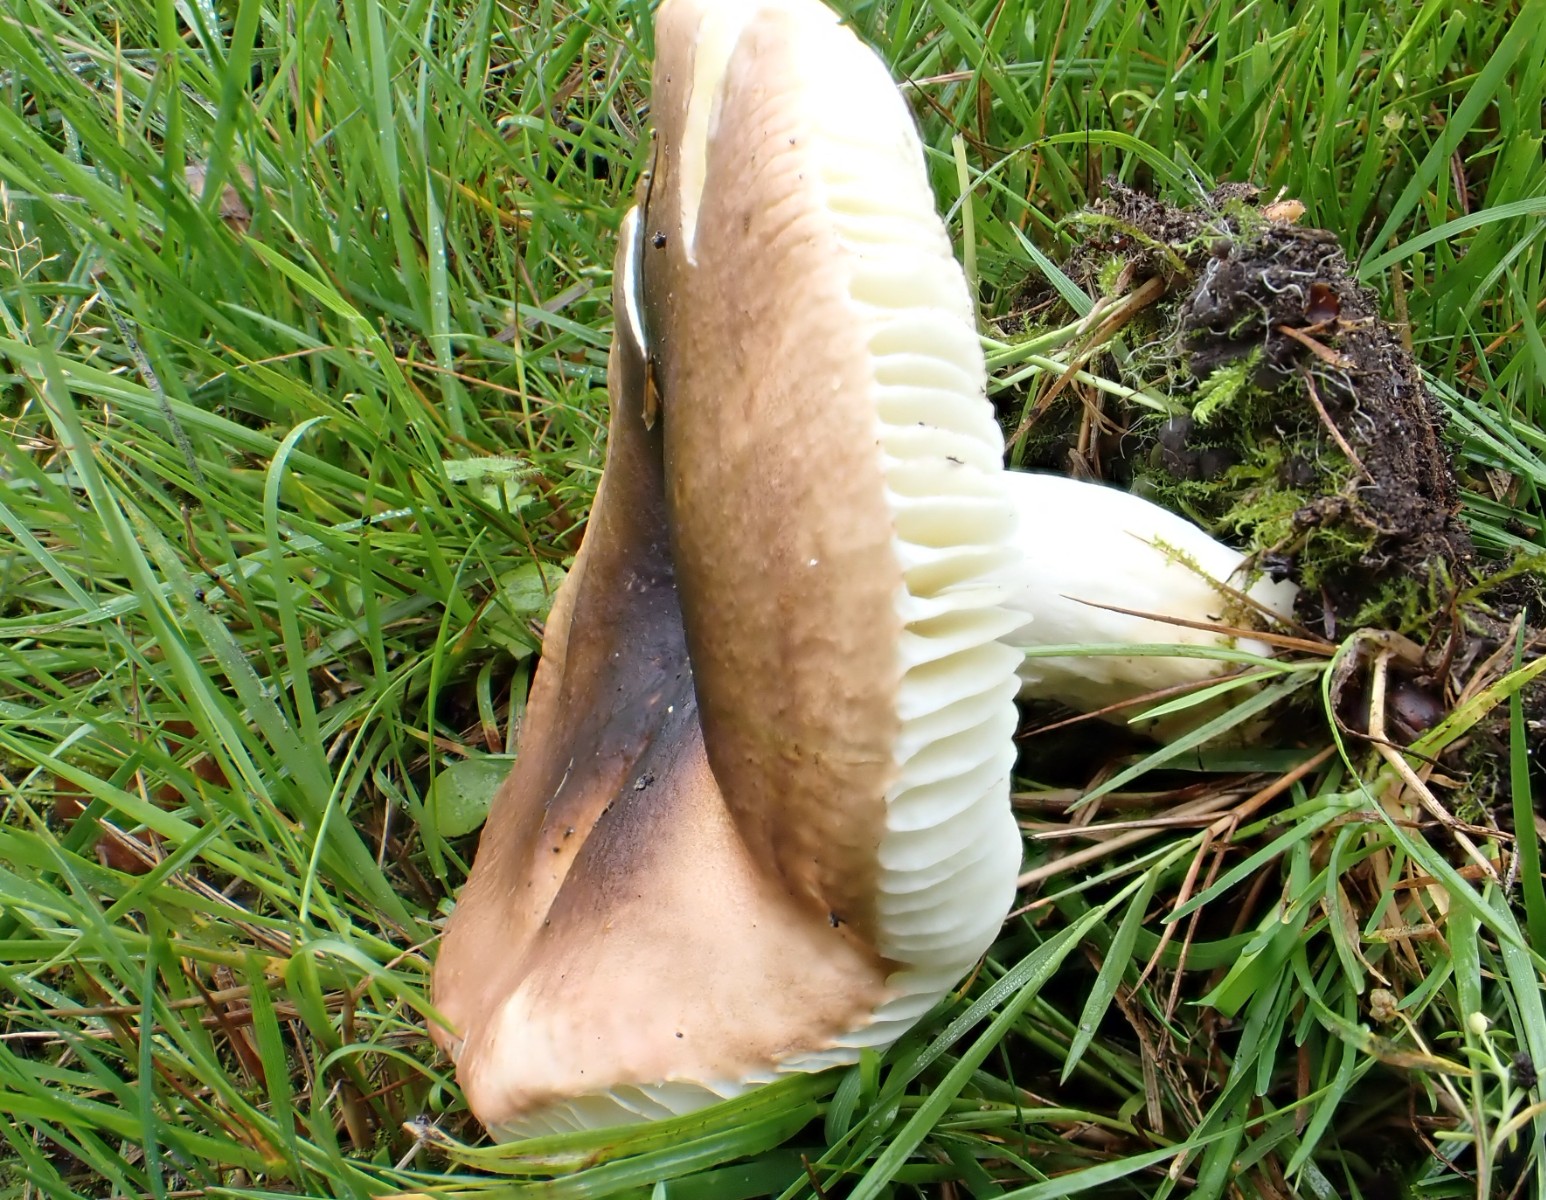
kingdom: Fungi
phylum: Basidiomycota
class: Agaricomycetes
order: Russulales
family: Russulaceae
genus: Russula
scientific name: Russula graveolens
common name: bugtet skørhat
